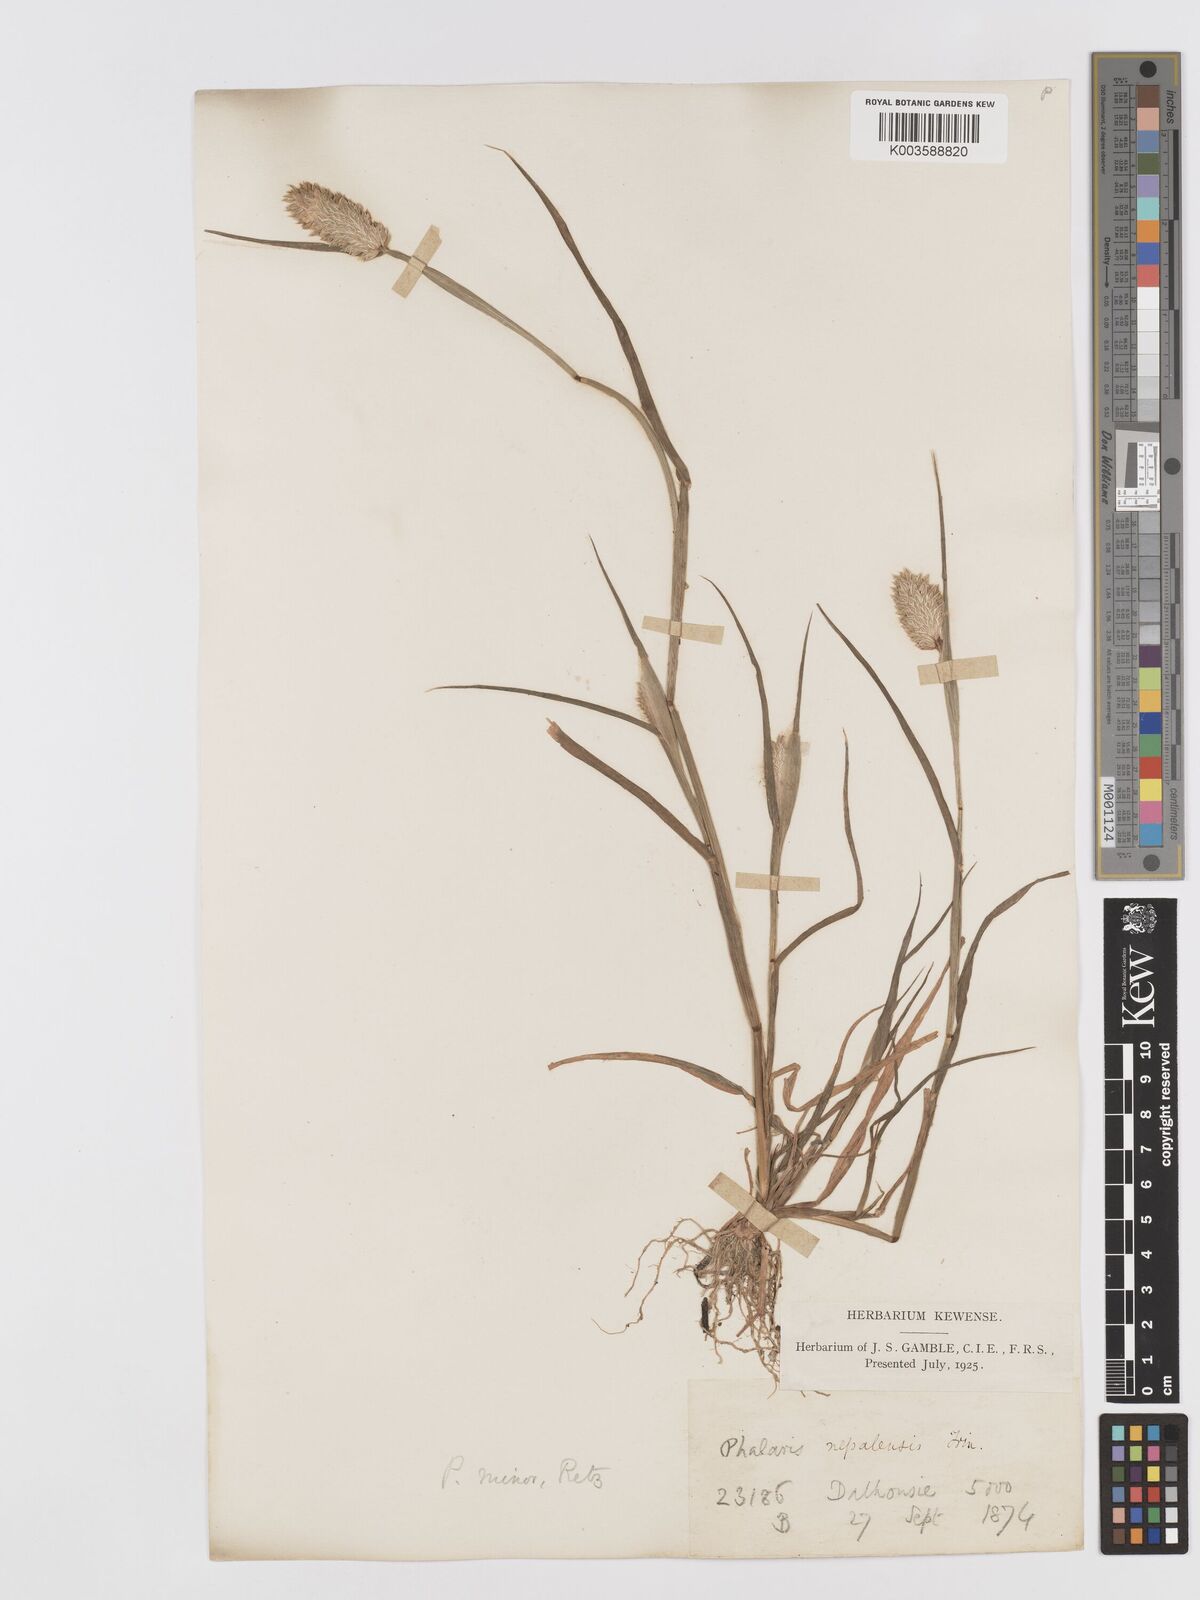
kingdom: Plantae
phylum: Tracheophyta
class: Liliopsida
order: Poales
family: Poaceae
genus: Phalaris
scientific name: Phalaris minor
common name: Littleseed canarygrass
